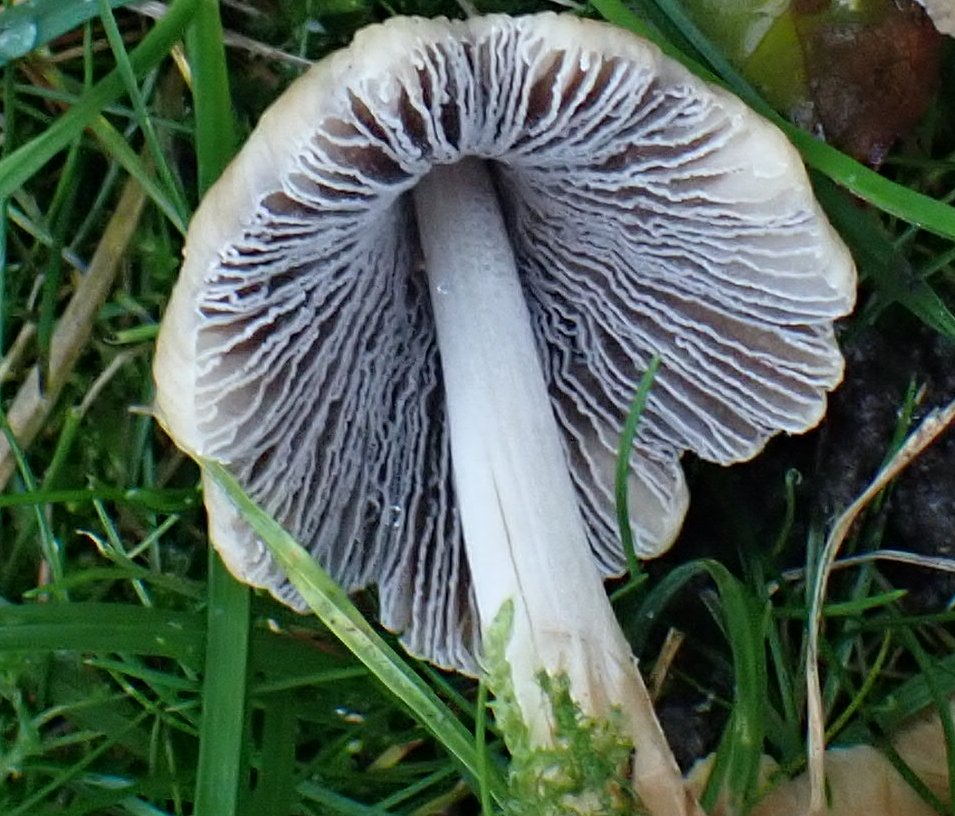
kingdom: Fungi
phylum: Basidiomycota
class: Agaricomycetes
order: Agaricales
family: Psathyrellaceae
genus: Coprinellus
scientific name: Coprinellus
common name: blækhat
